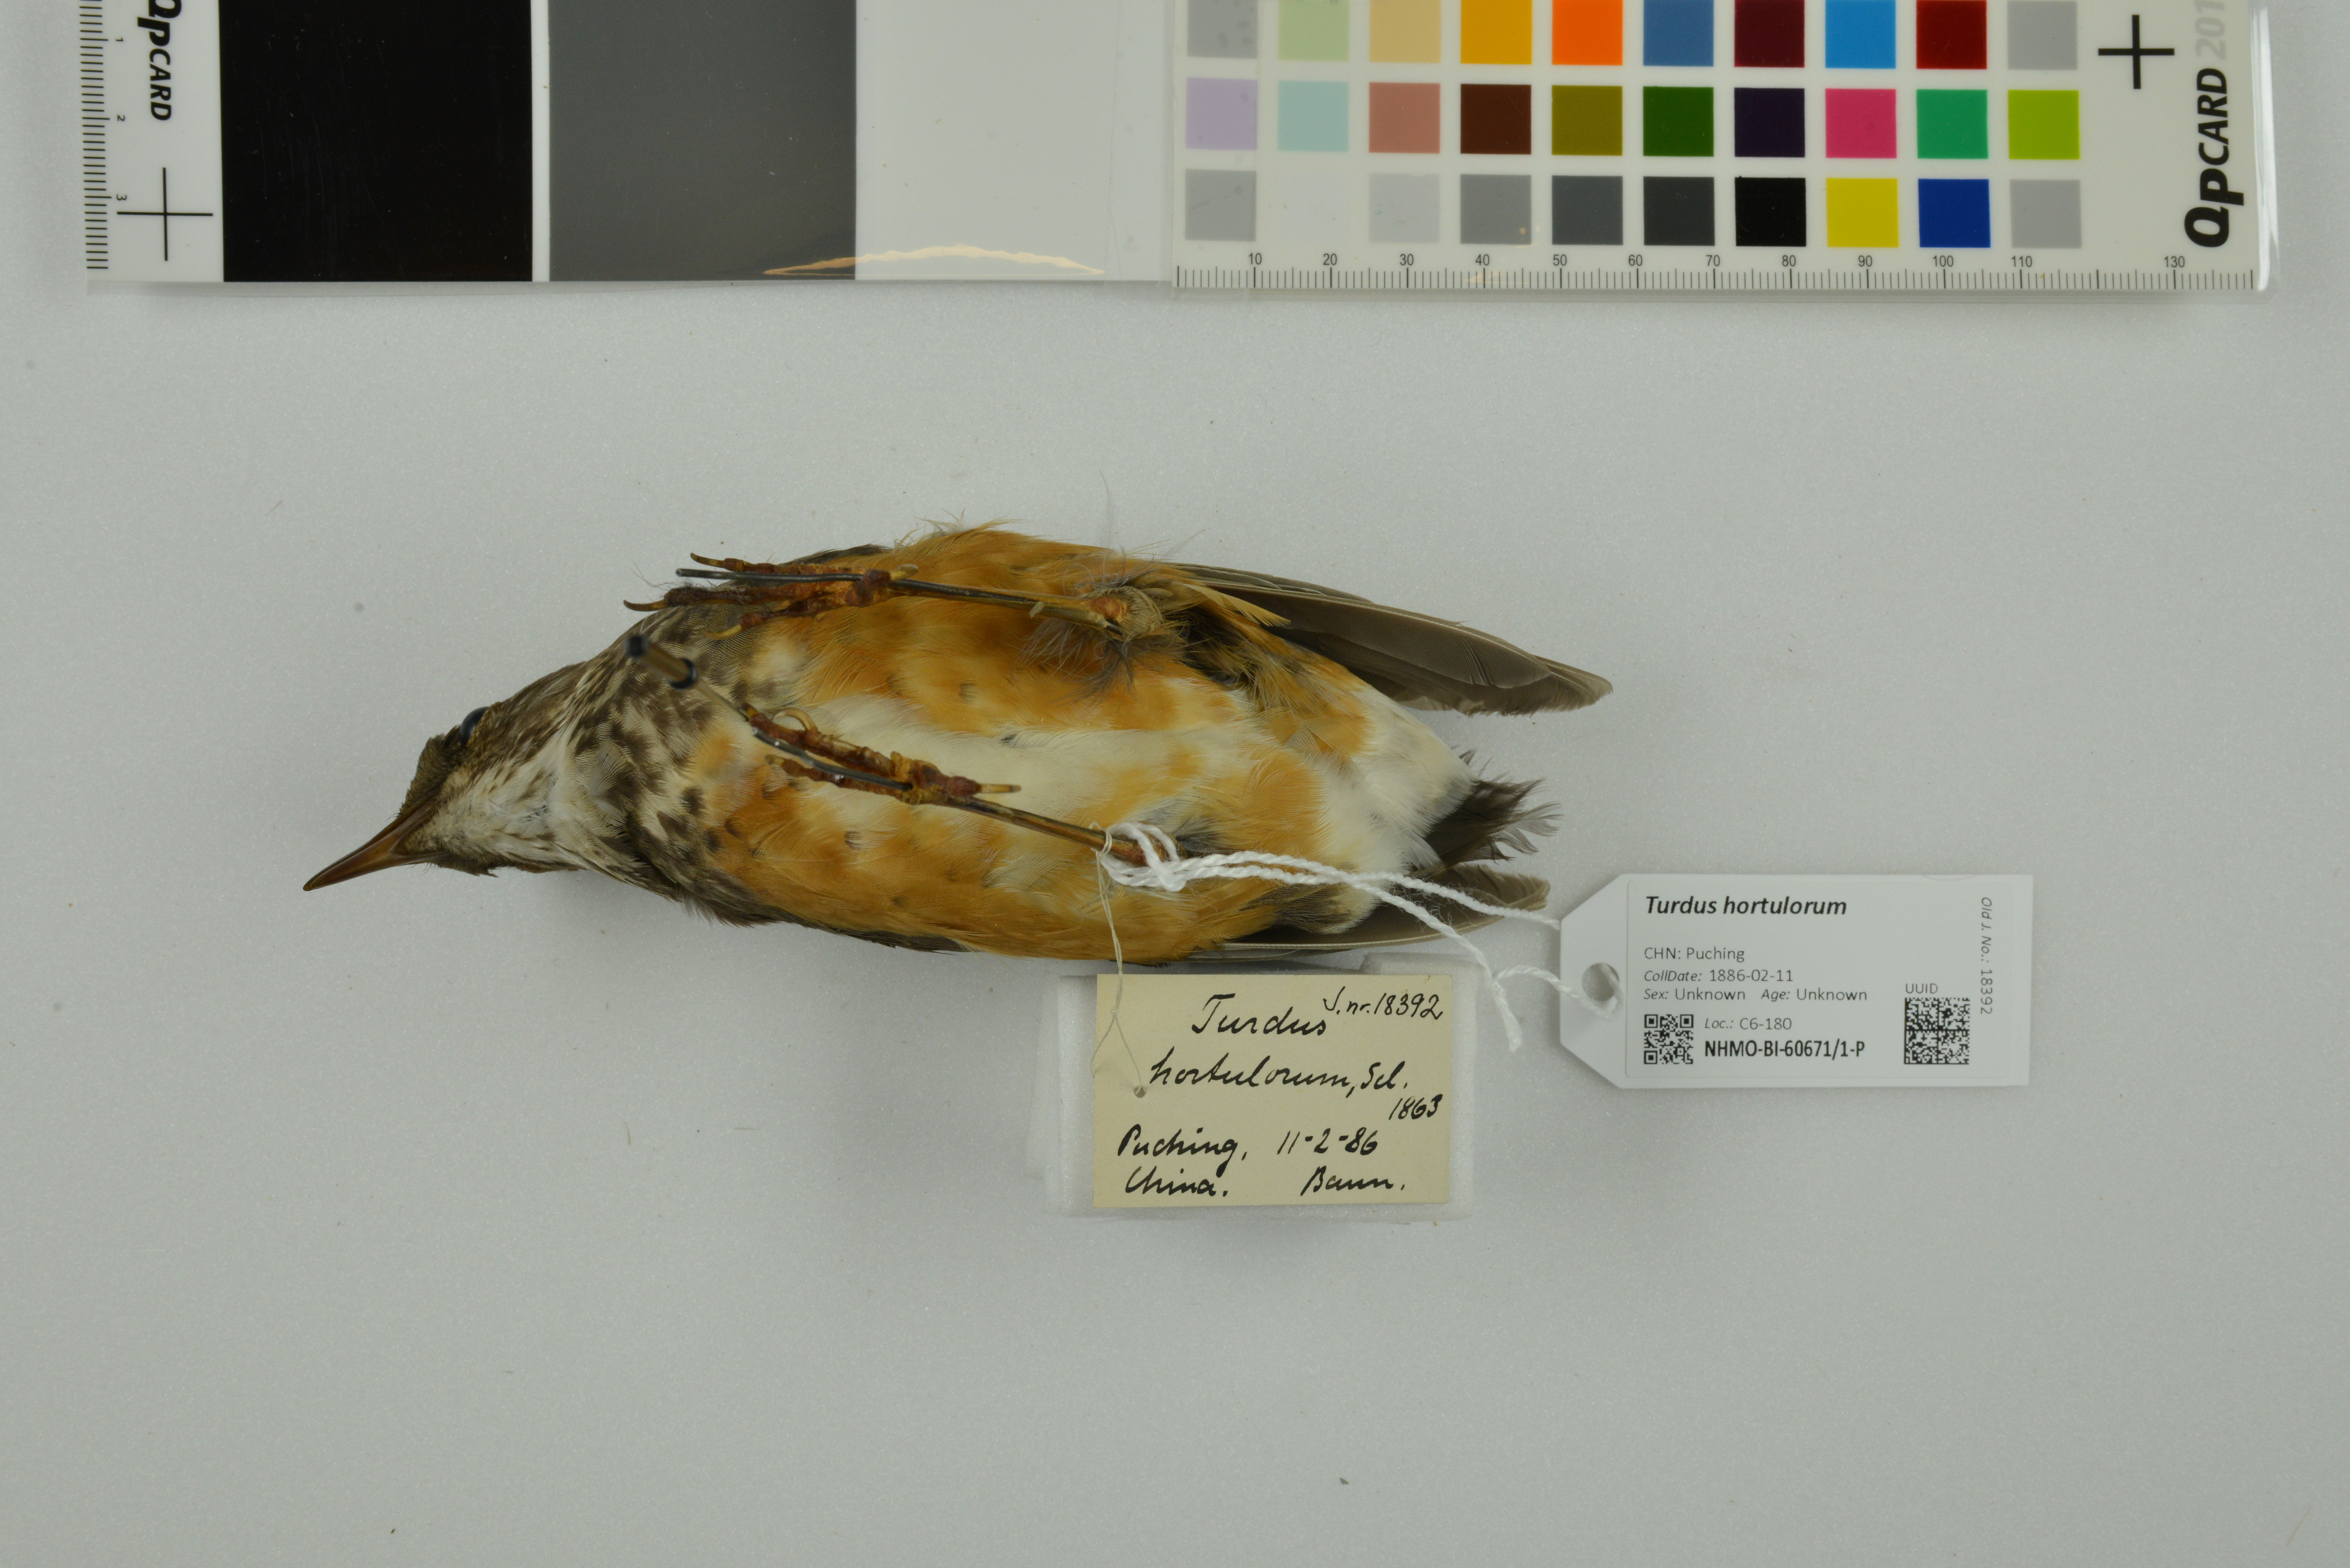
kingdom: Animalia
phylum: Chordata
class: Aves
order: Passeriformes
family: Turdidae
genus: Turdus
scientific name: Turdus hortulorum
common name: Grey-backed thrush
